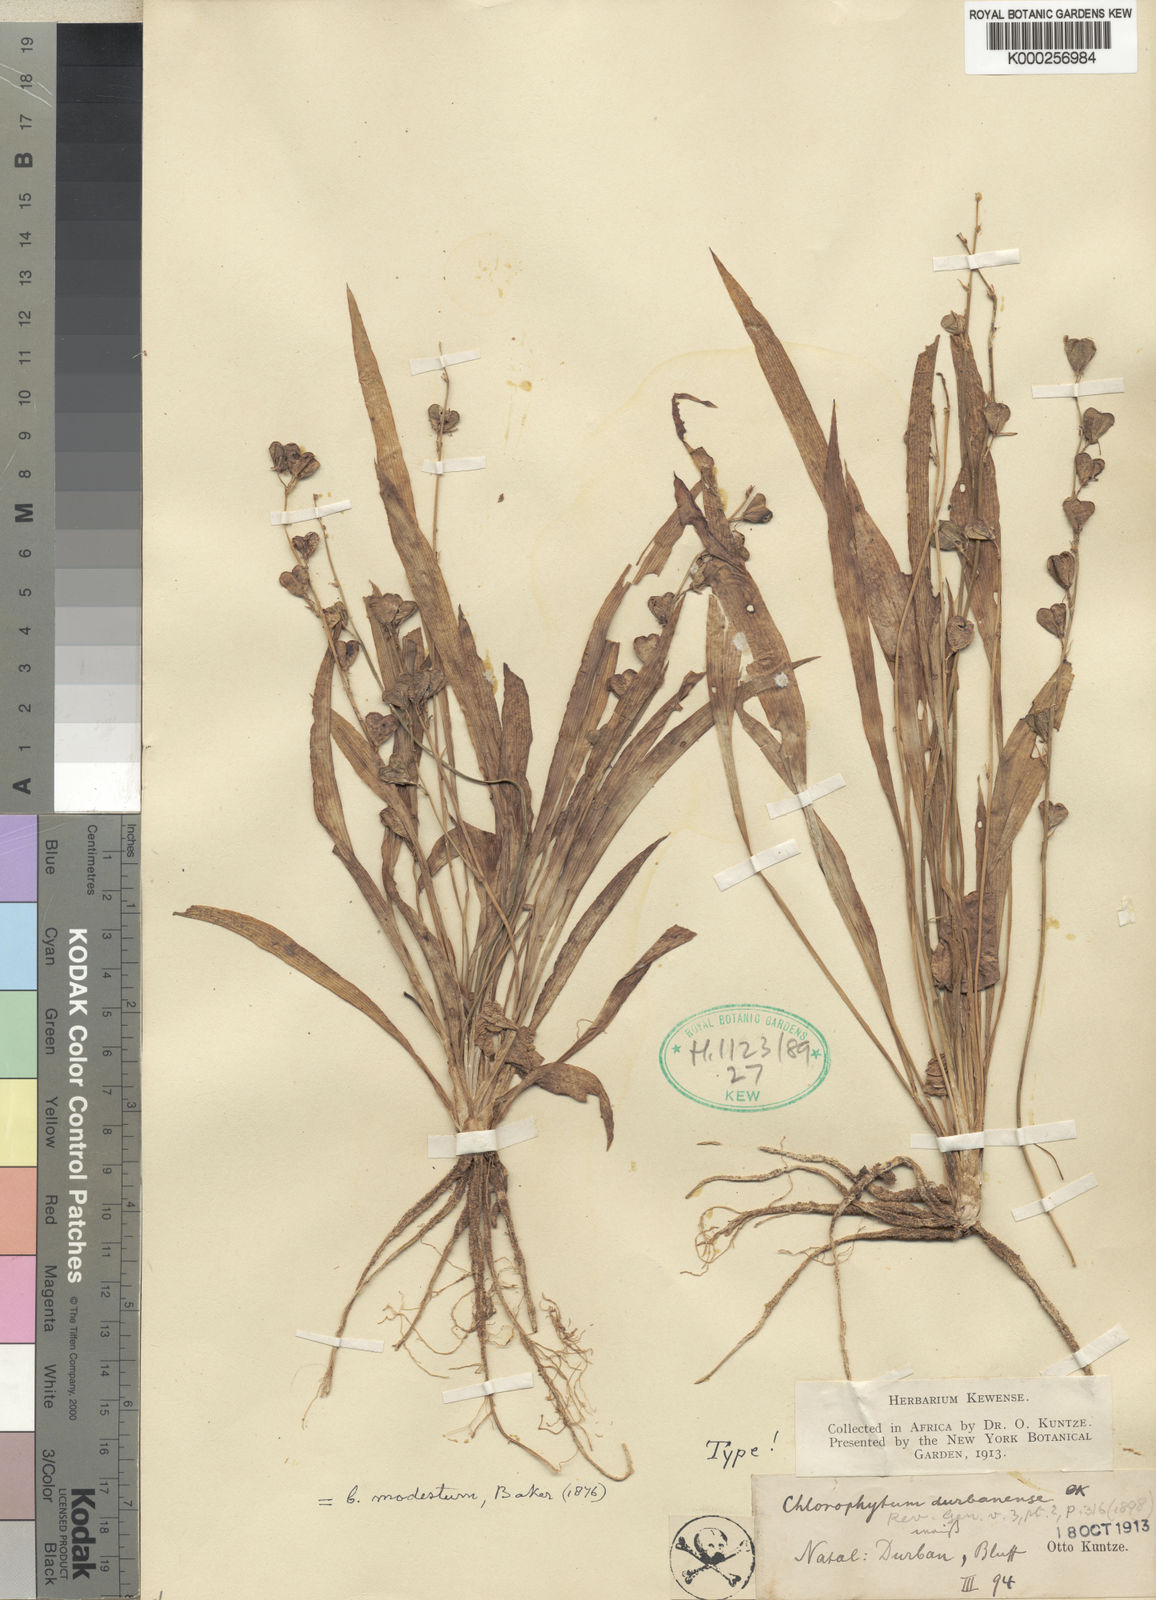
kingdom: Plantae
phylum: Tracheophyta
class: Liliopsida
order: Asparagales
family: Asparagaceae
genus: Chlorophytum
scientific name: Chlorophytum modestum
